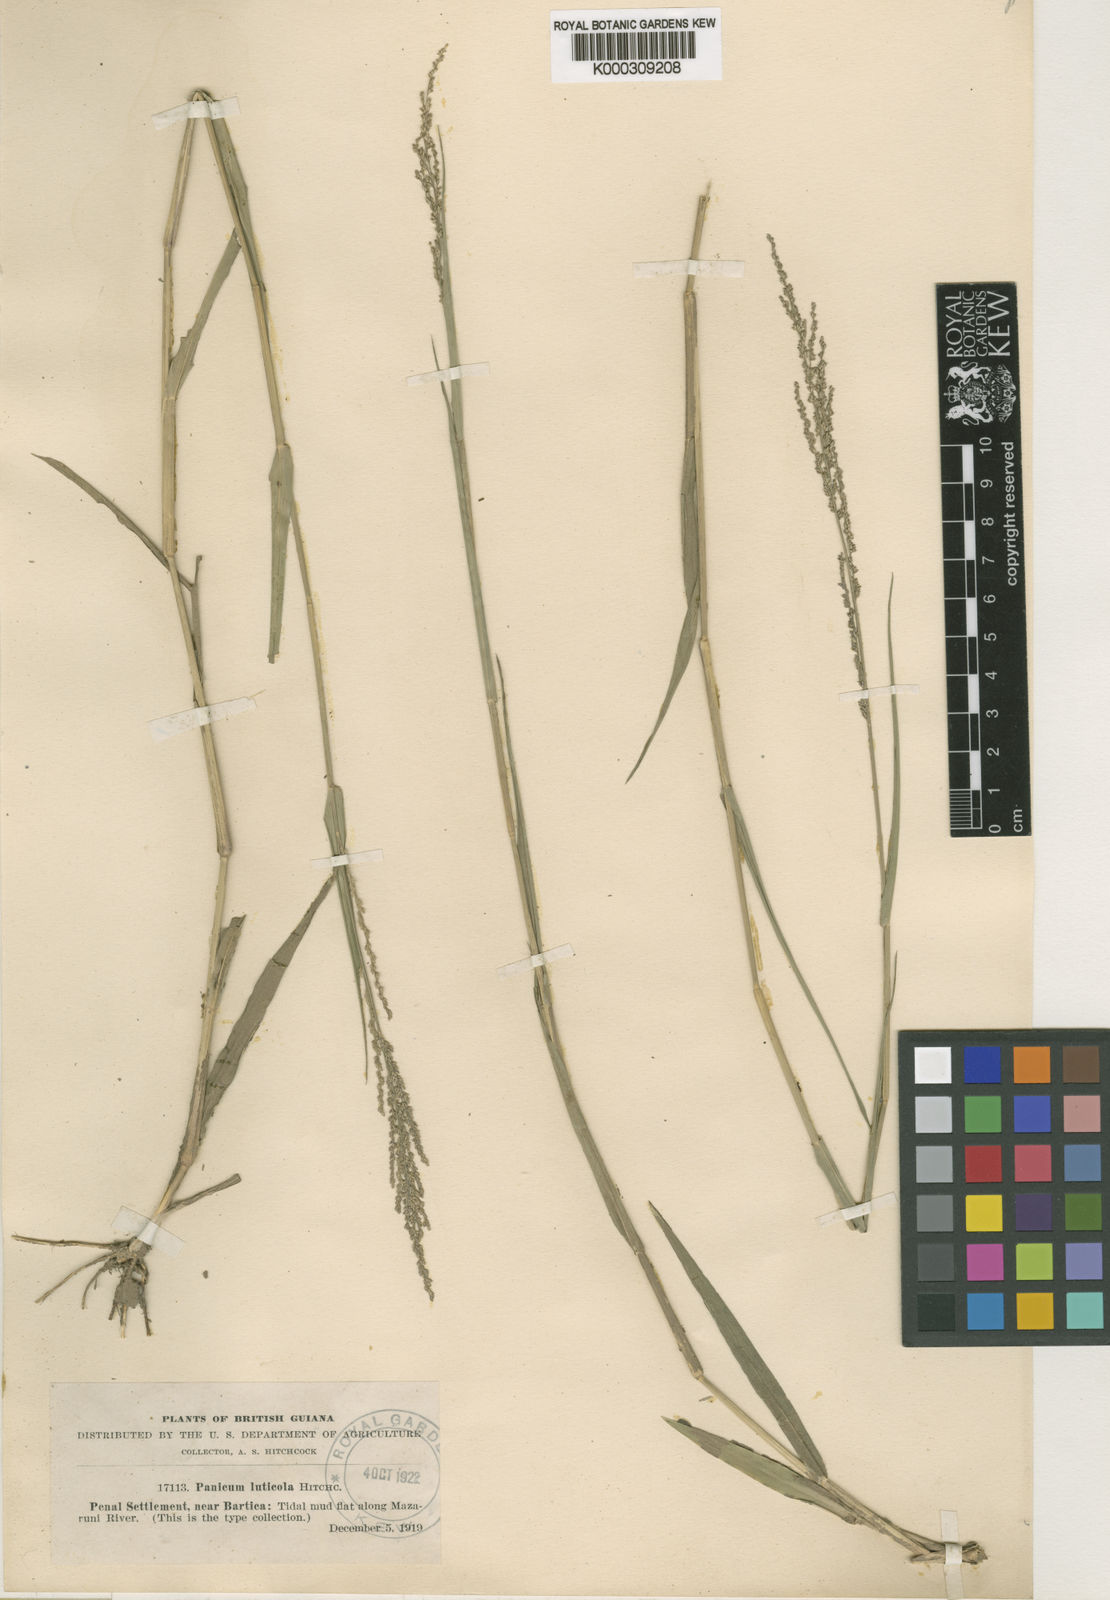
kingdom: Plantae
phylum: Tracheophyta
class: Liliopsida
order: Poales
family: Poaceae
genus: Steinchisma
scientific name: Steinchisma laxum
